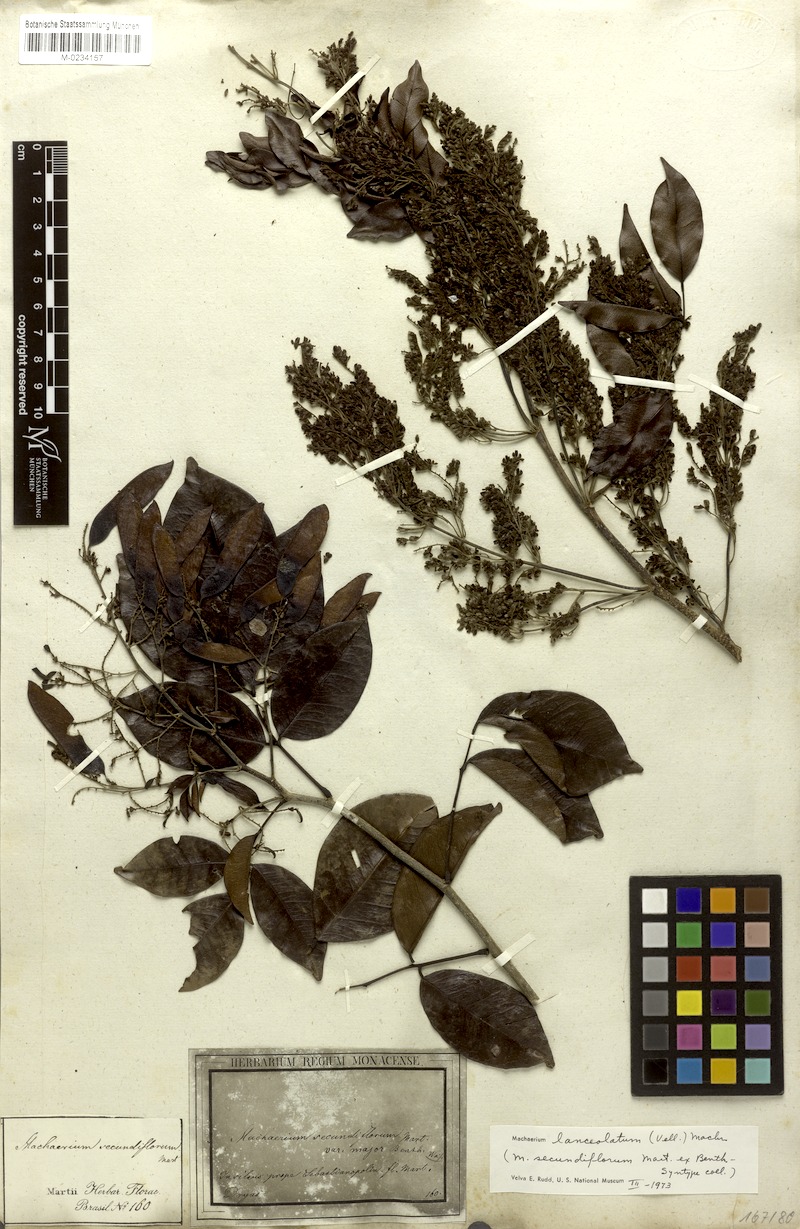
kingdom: Plantae
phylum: Tracheophyta
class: Magnoliopsida
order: Fabales
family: Fabaceae
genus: Machaerium
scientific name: Machaerium lanceolatum
